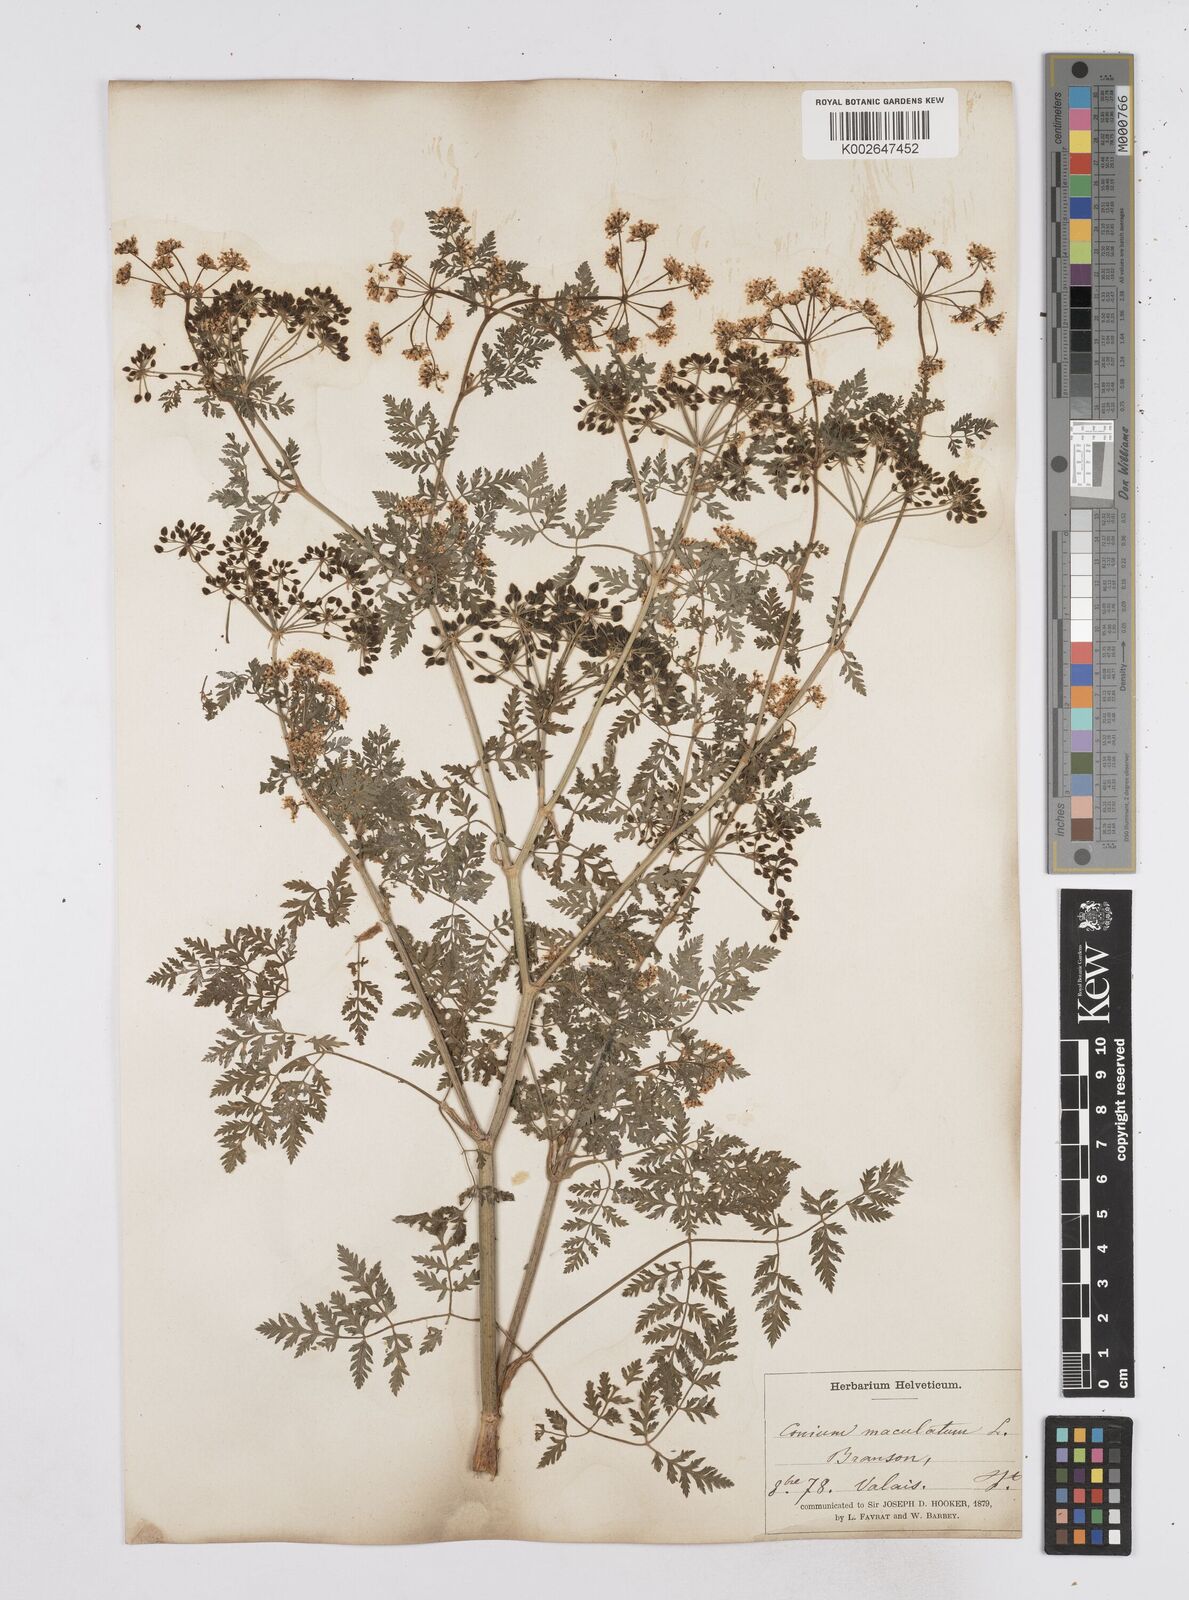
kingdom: Plantae
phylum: Tracheophyta
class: Magnoliopsida
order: Apiales
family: Apiaceae
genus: Conium
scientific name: Conium maculatum
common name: Hemlock
